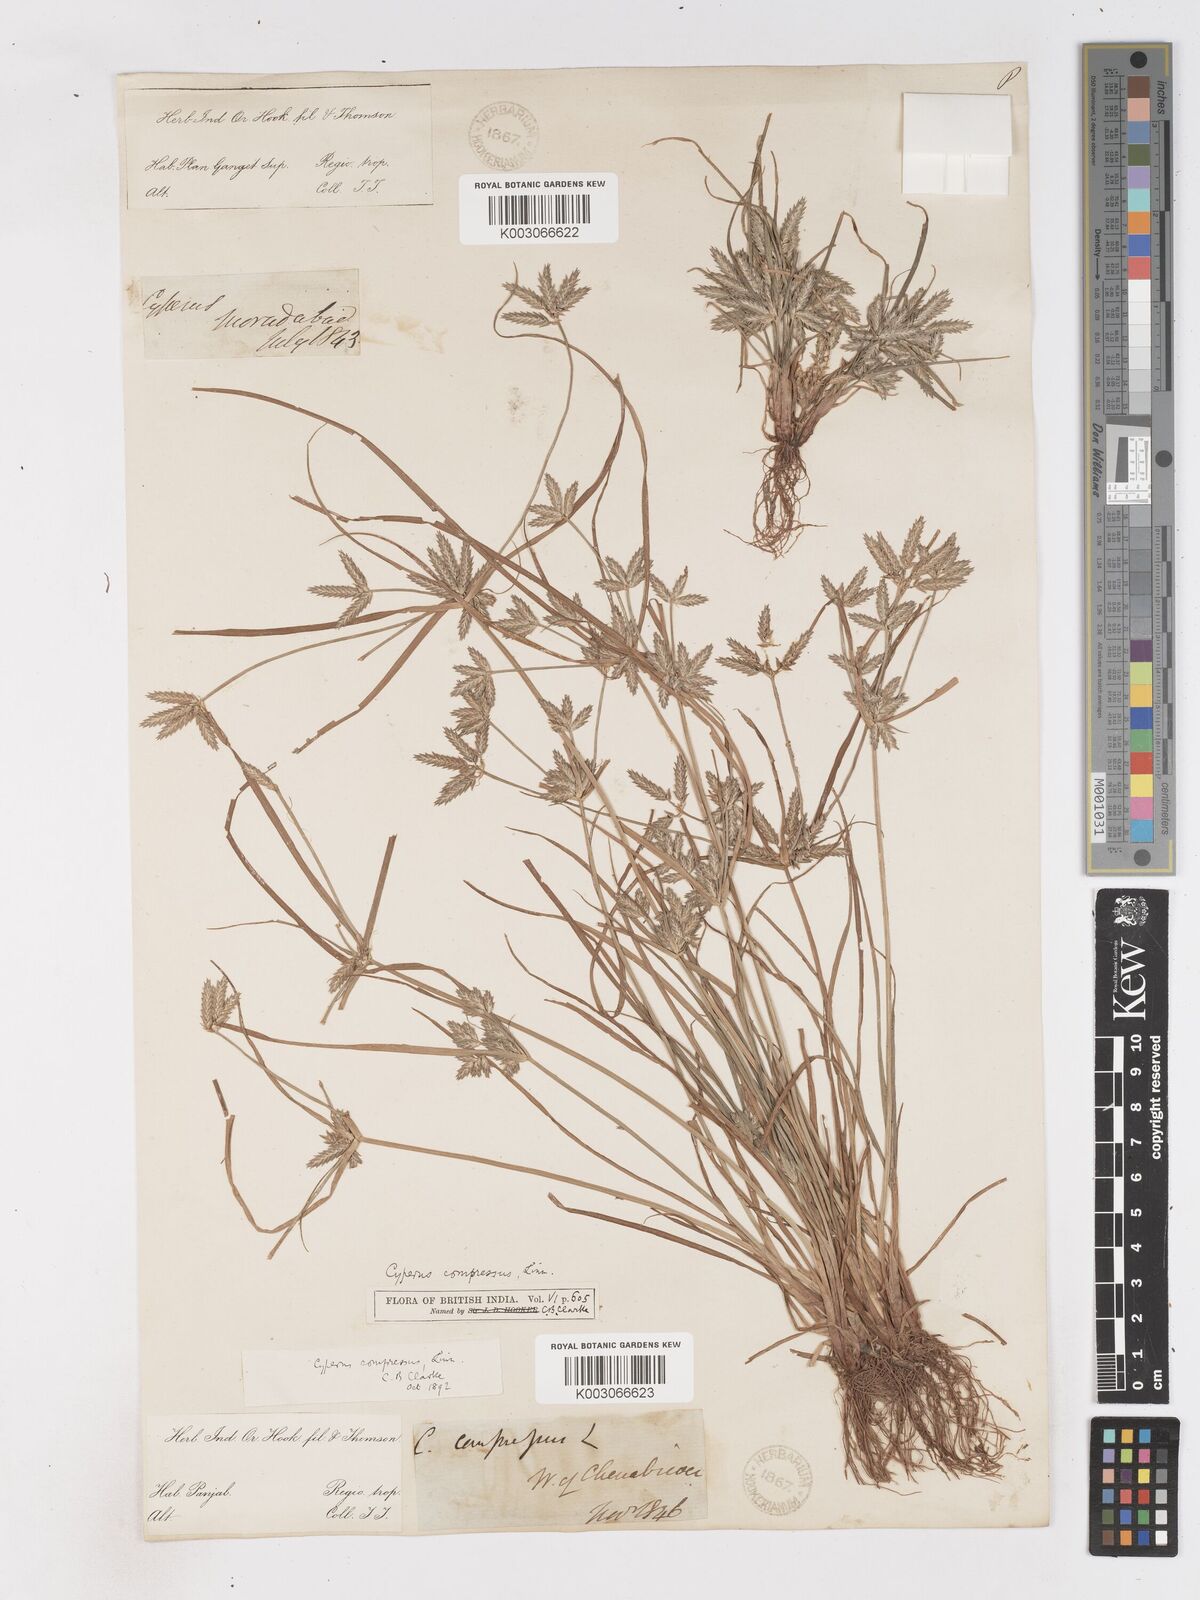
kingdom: Plantae
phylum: Tracheophyta
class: Liliopsida
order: Poales
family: Cyperaceae
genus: Cyperus
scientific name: Cyperus compressus
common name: Poorland flatsedge
